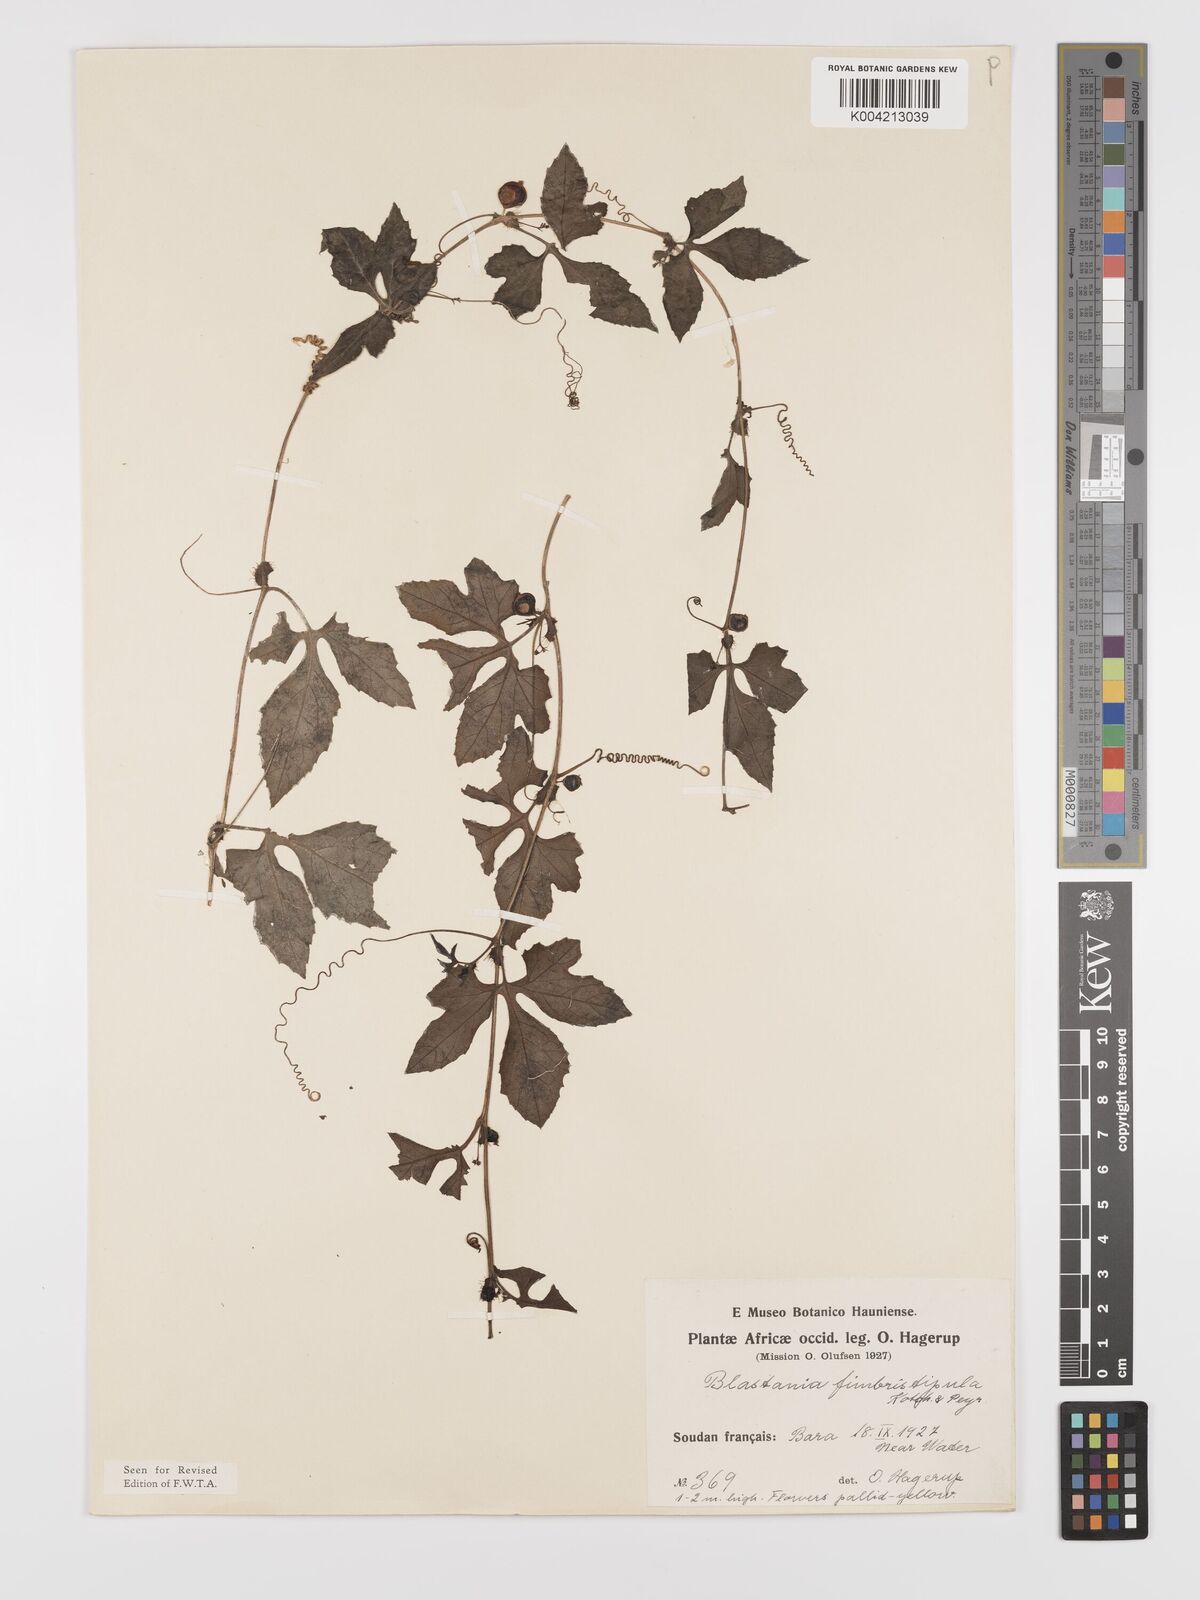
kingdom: Plantae
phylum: Tracheophyta
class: Magnoliopsida
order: Cucurbitales
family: Cucurbitaceae
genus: Blastania
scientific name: Blastania
